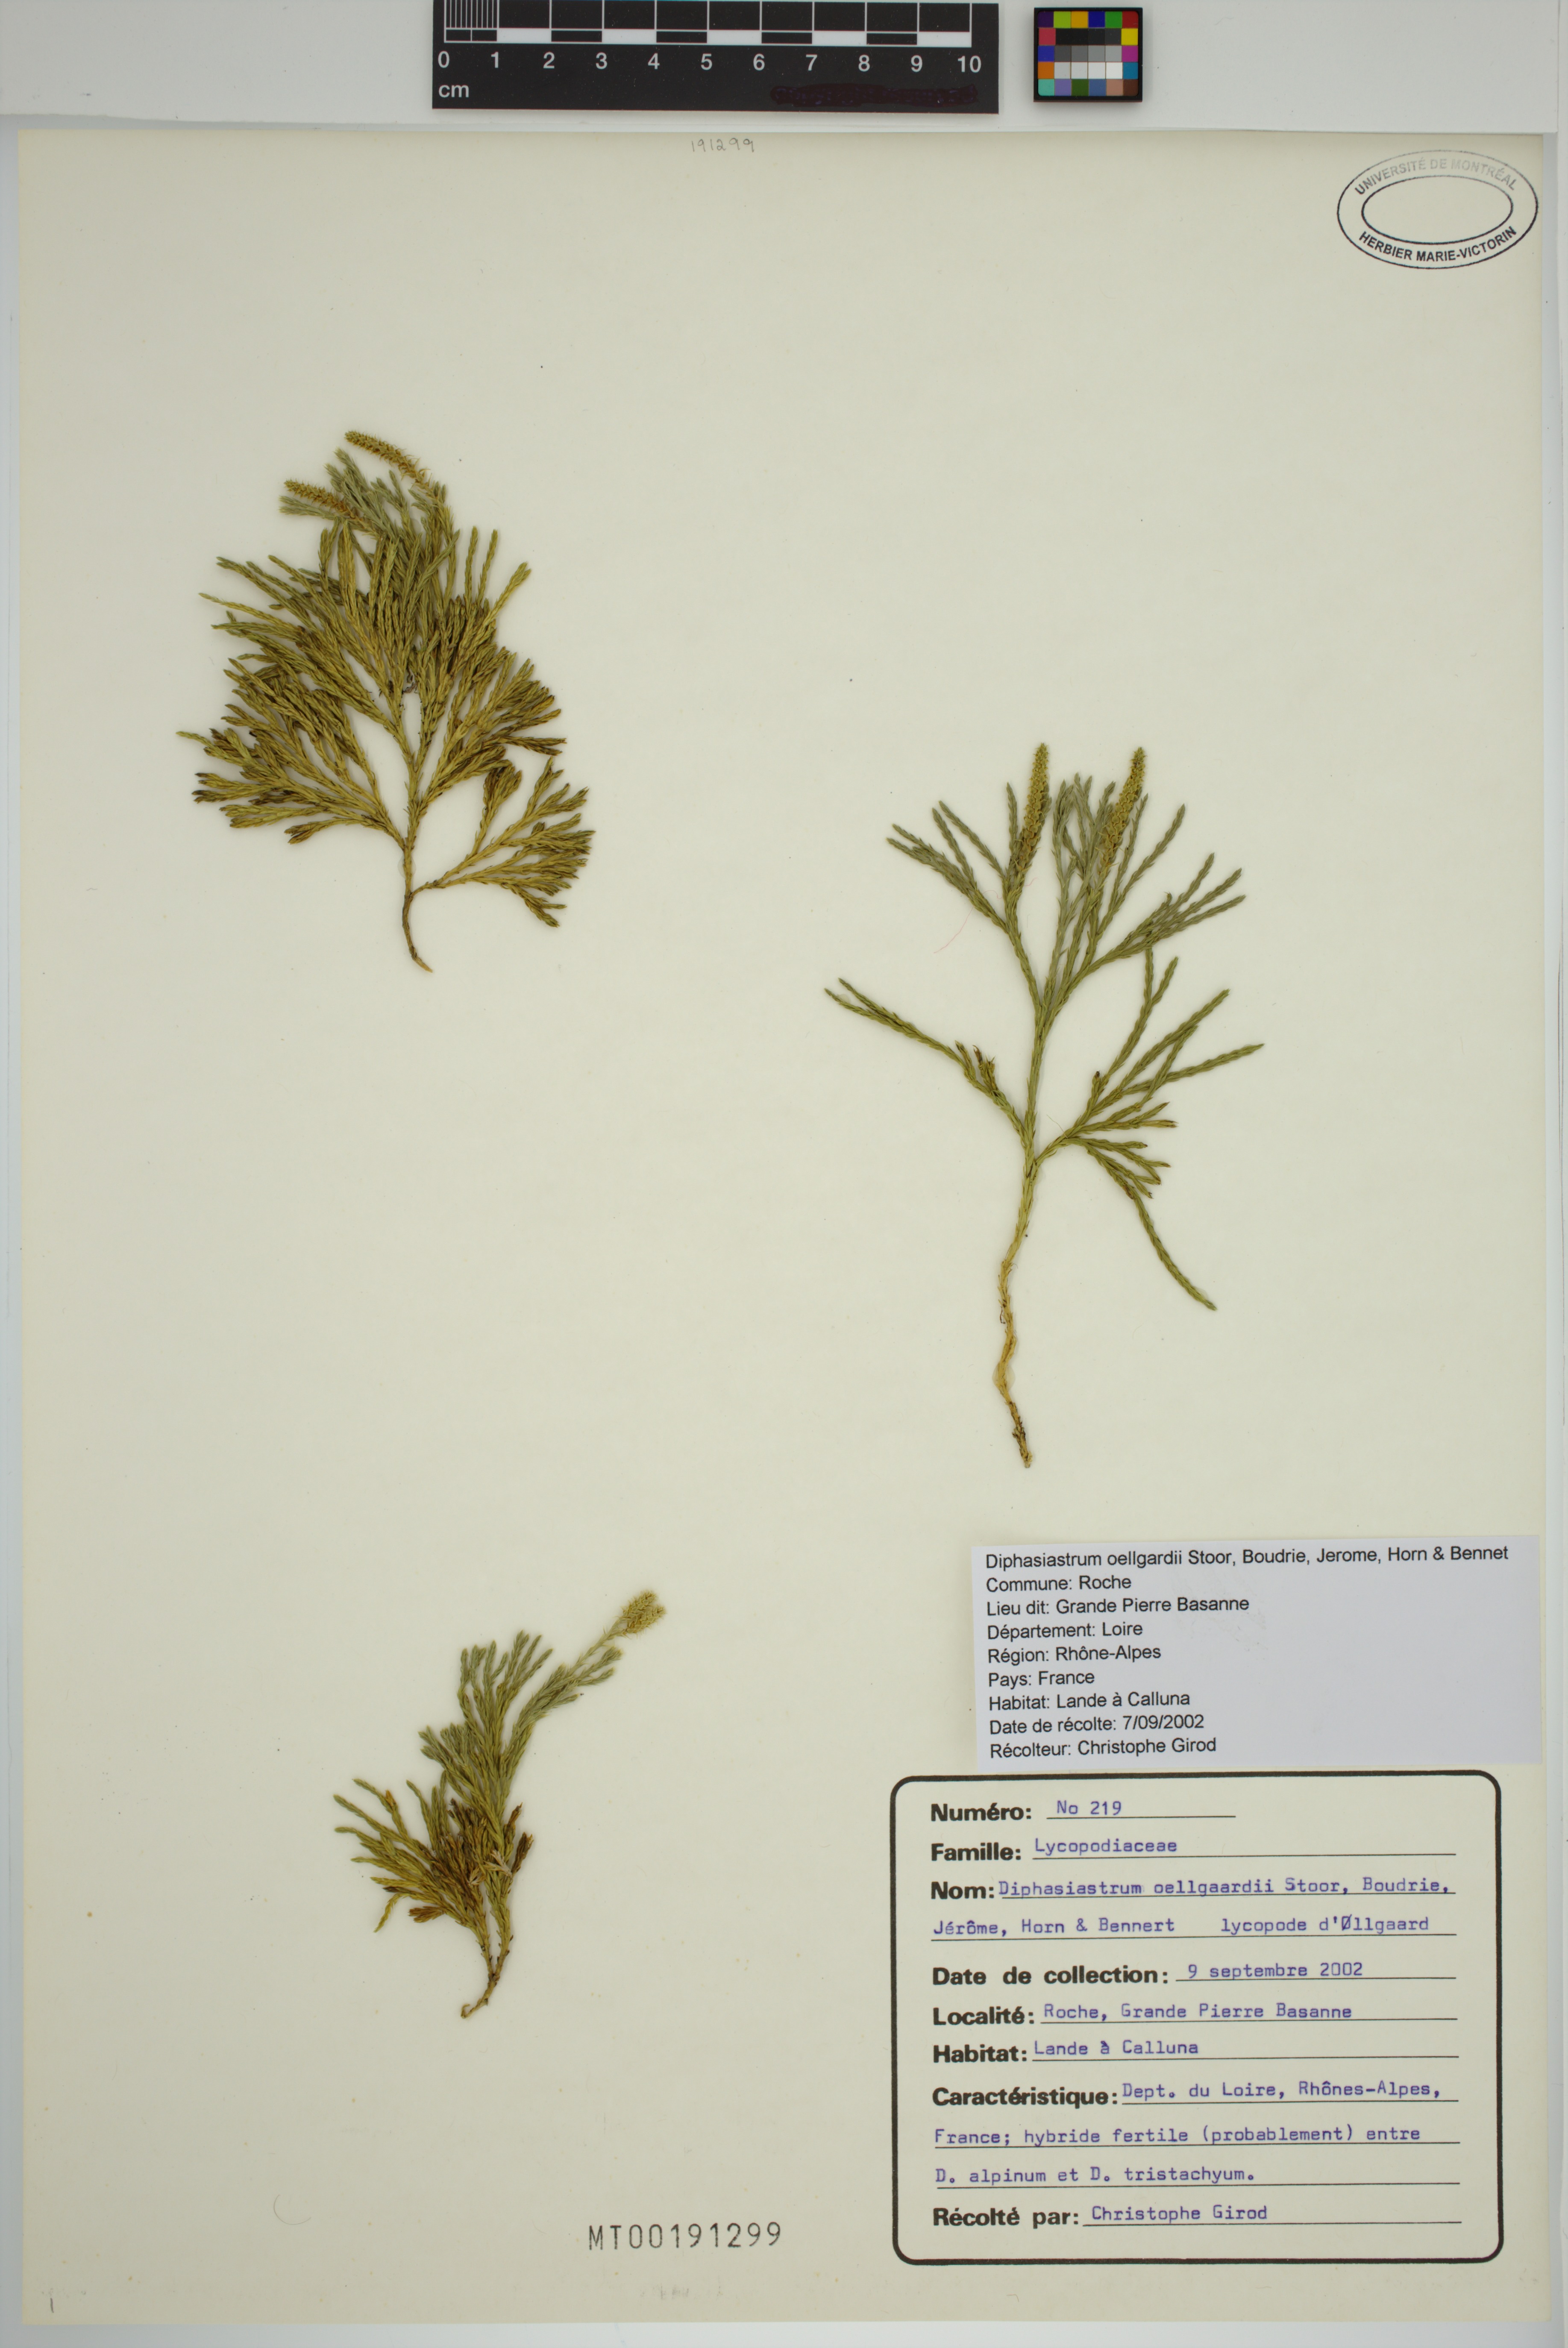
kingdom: Plantae
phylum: Tracheophyta
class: Lycopodiopsida
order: Lycopodiales
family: Lycopodiaceae
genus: Diphasiastrum
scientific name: Diphasiastrum oellgaardii
